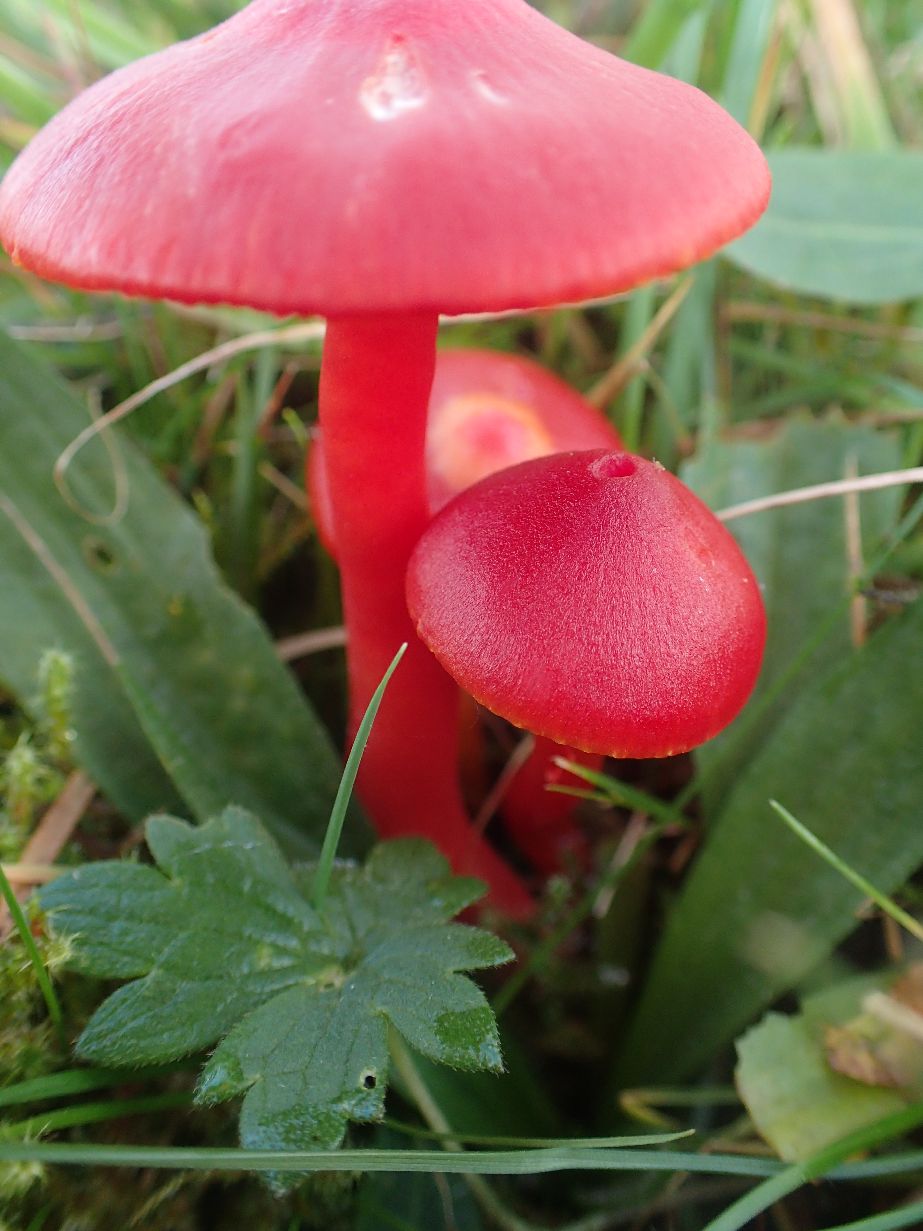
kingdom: Fungi
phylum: Basidiomycota
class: Agaricomycetes
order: Agaricales
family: Hygrophoraceae
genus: Hygrocybe
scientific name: Hygrocybe coccinea
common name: cinnober-vokshat
